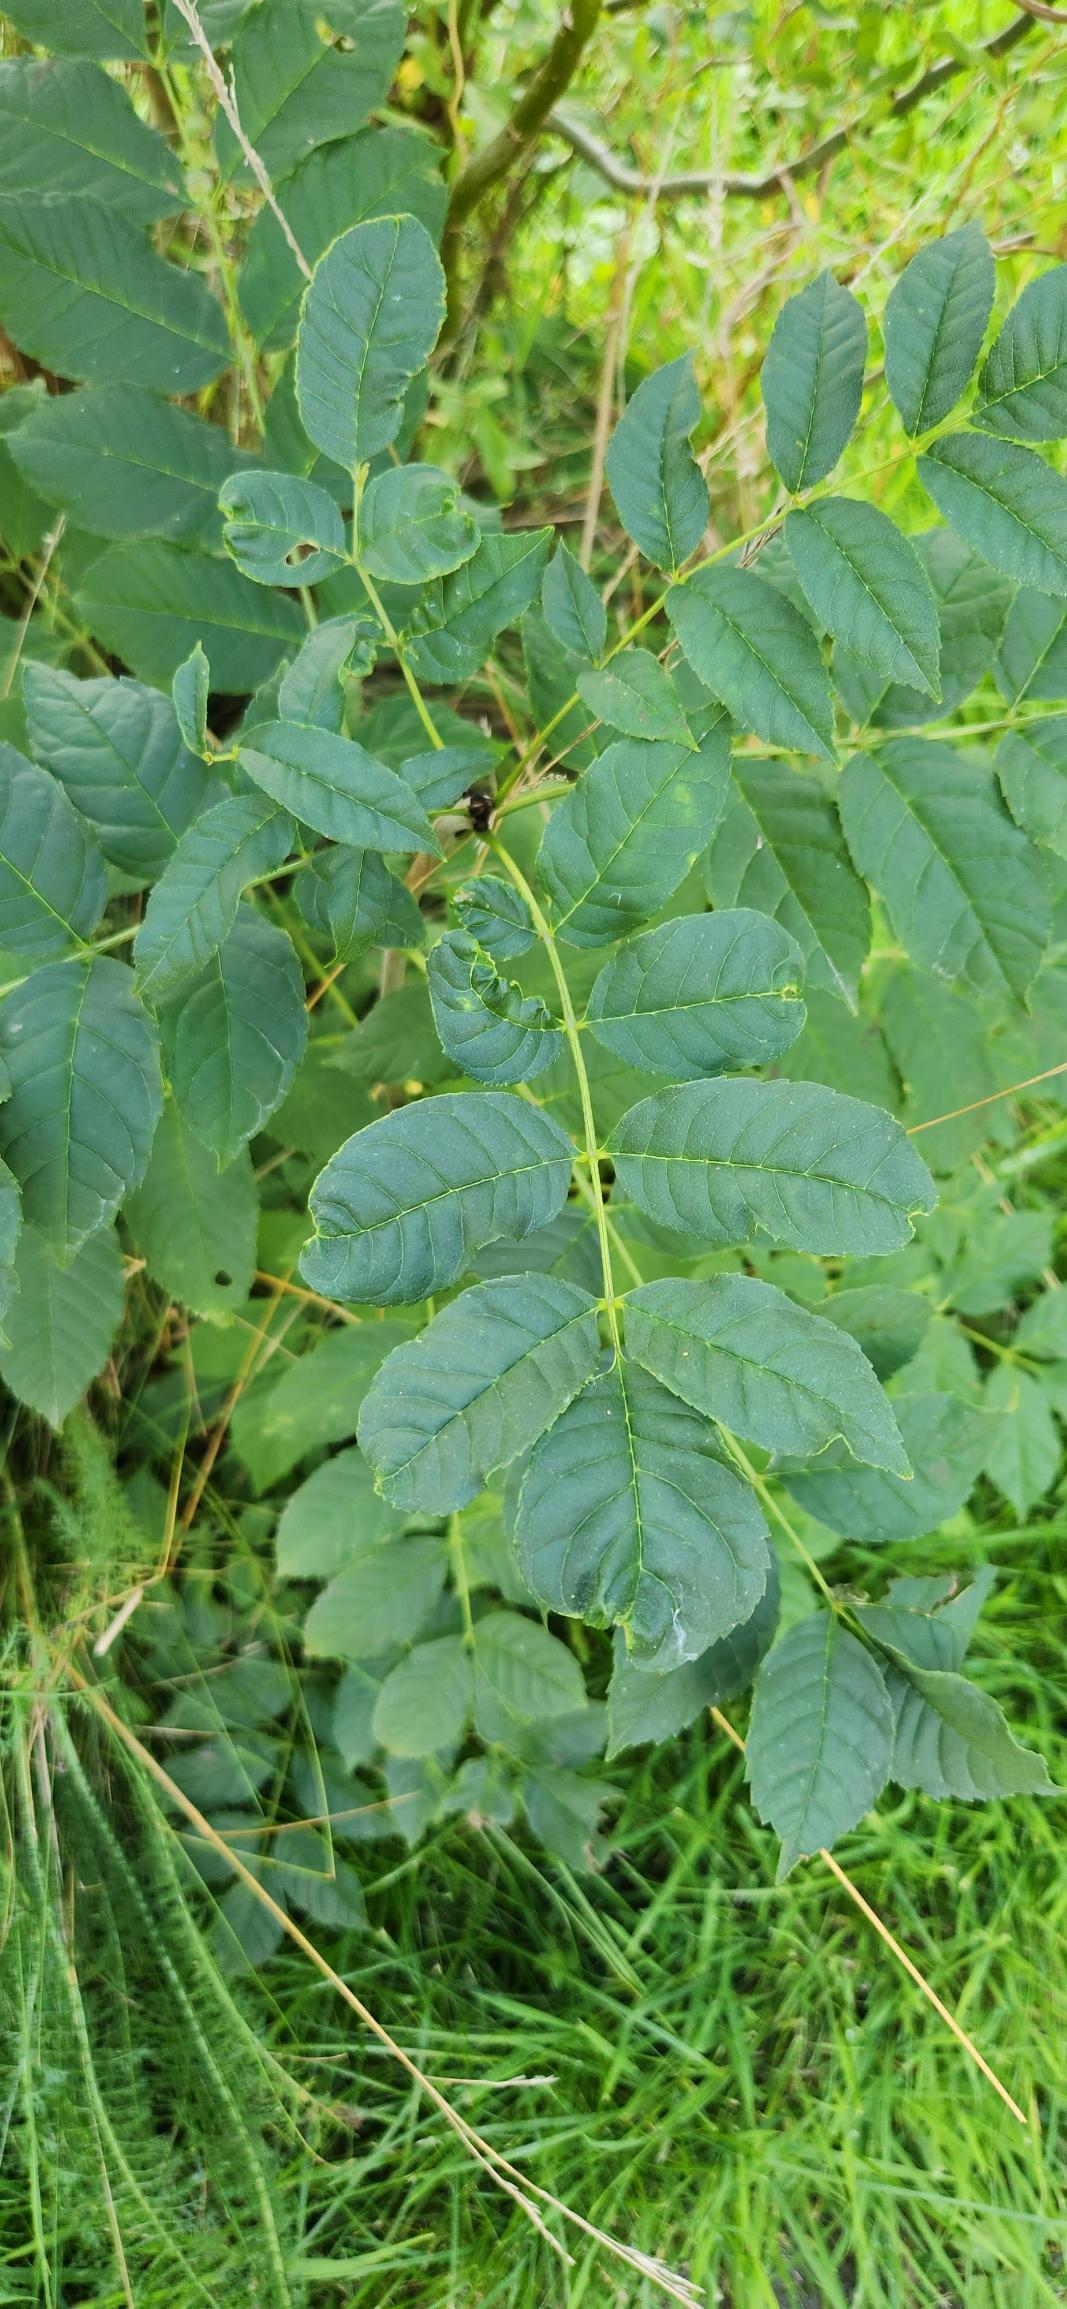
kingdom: Plantae
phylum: Tracheophyta
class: Magnoliopsida
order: Lamiales
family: Oleaceae
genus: Fraxinus
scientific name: Fraxinus excelsior
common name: Ask
